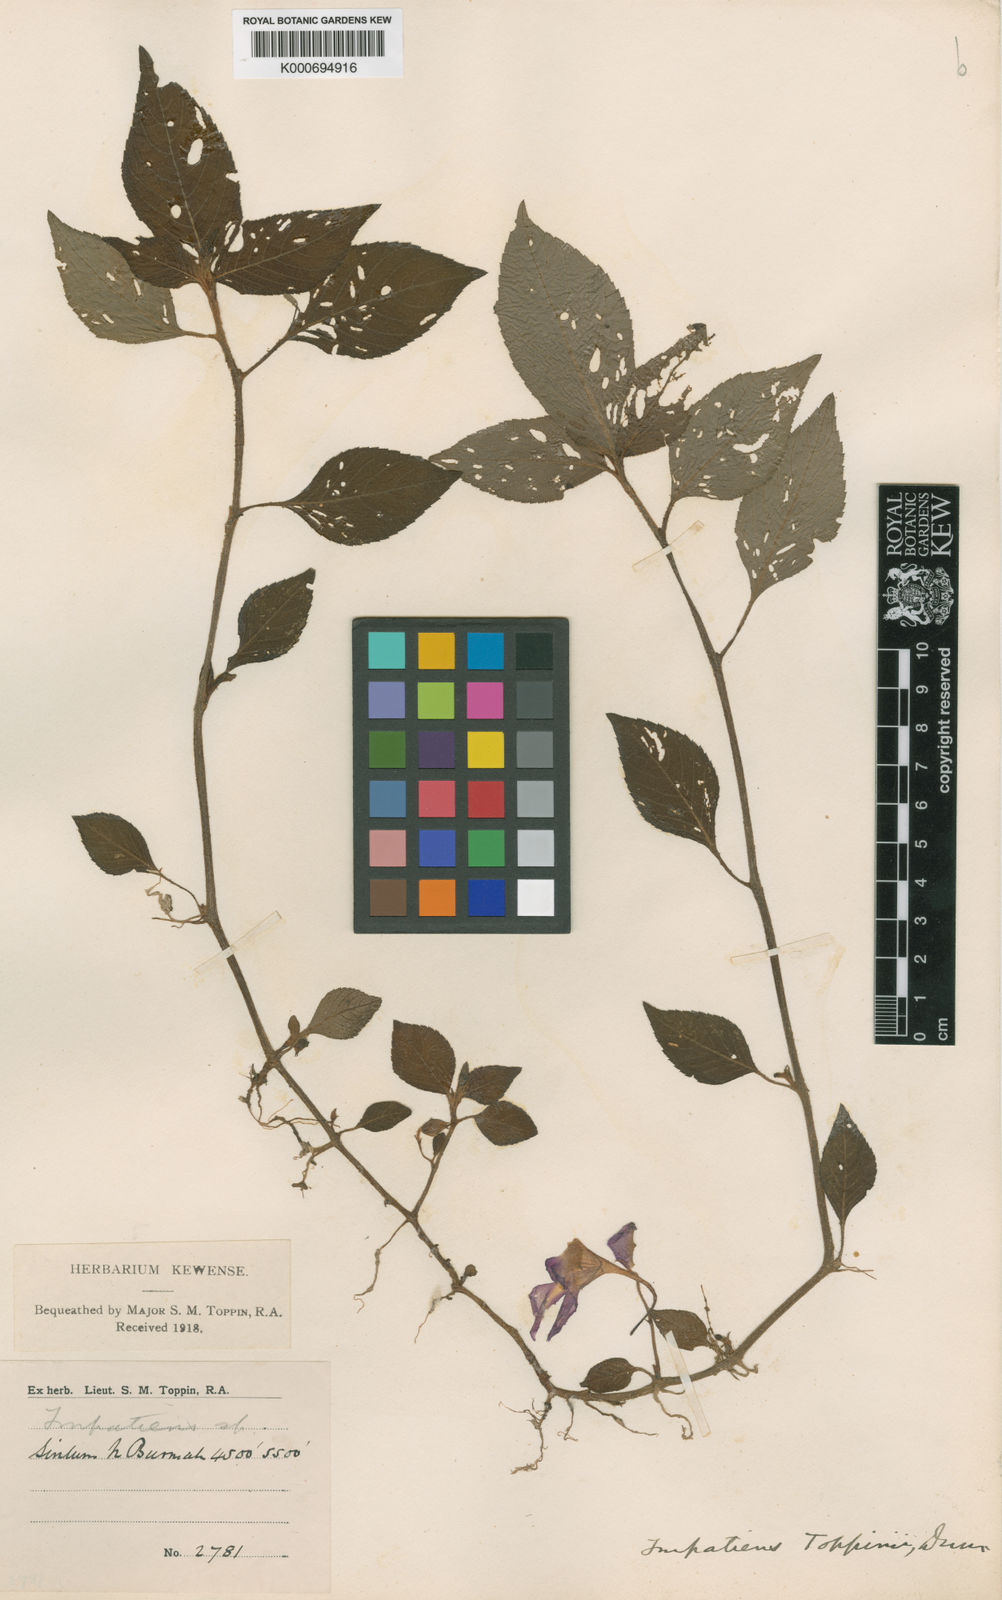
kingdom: Plantae
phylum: Tracheophyta
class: Magnoliopsida
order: Ericales
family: Balsaminaceae
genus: Impatiens
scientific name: Impatiens toppinii
